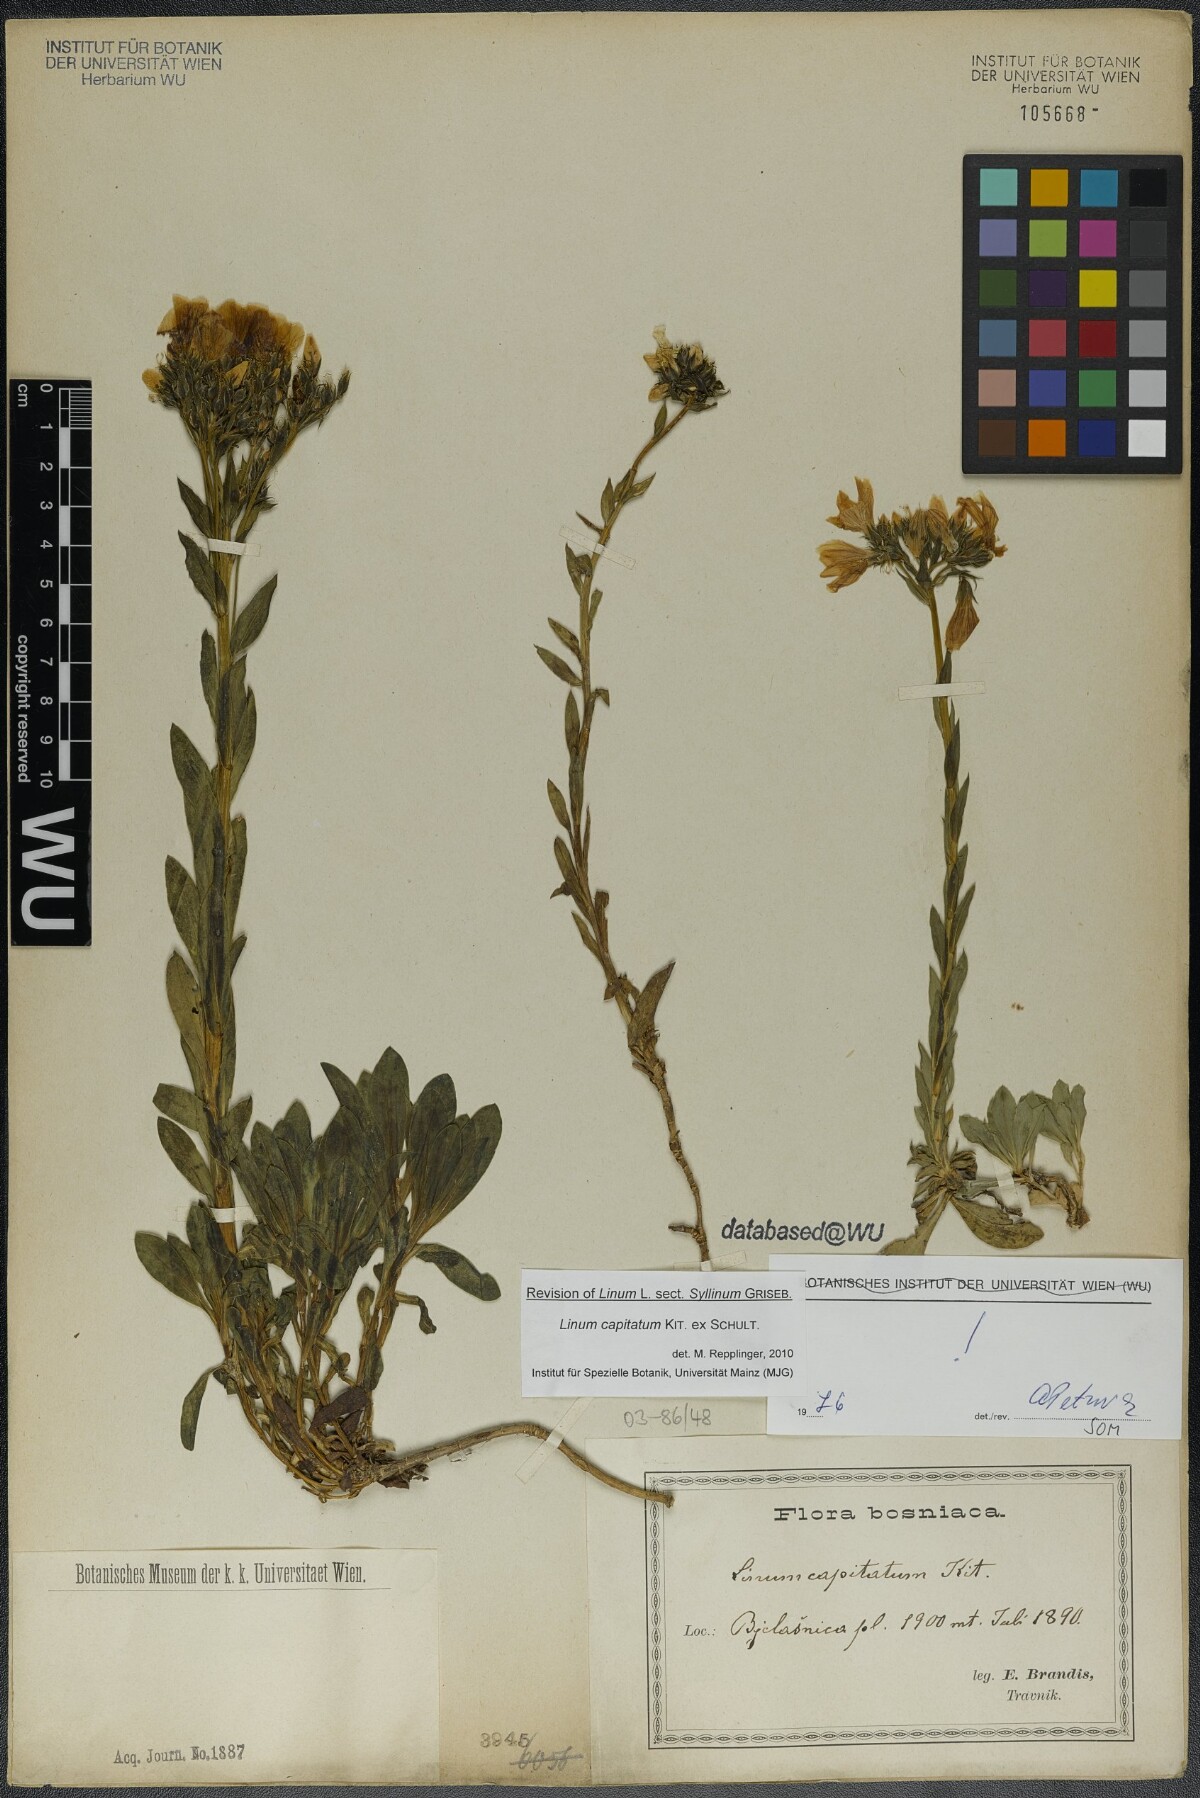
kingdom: Plantae
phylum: Tracheophyta
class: Magnoliopsida
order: Malpighiales
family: Linaceae
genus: Linum
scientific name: Linum capitatum
